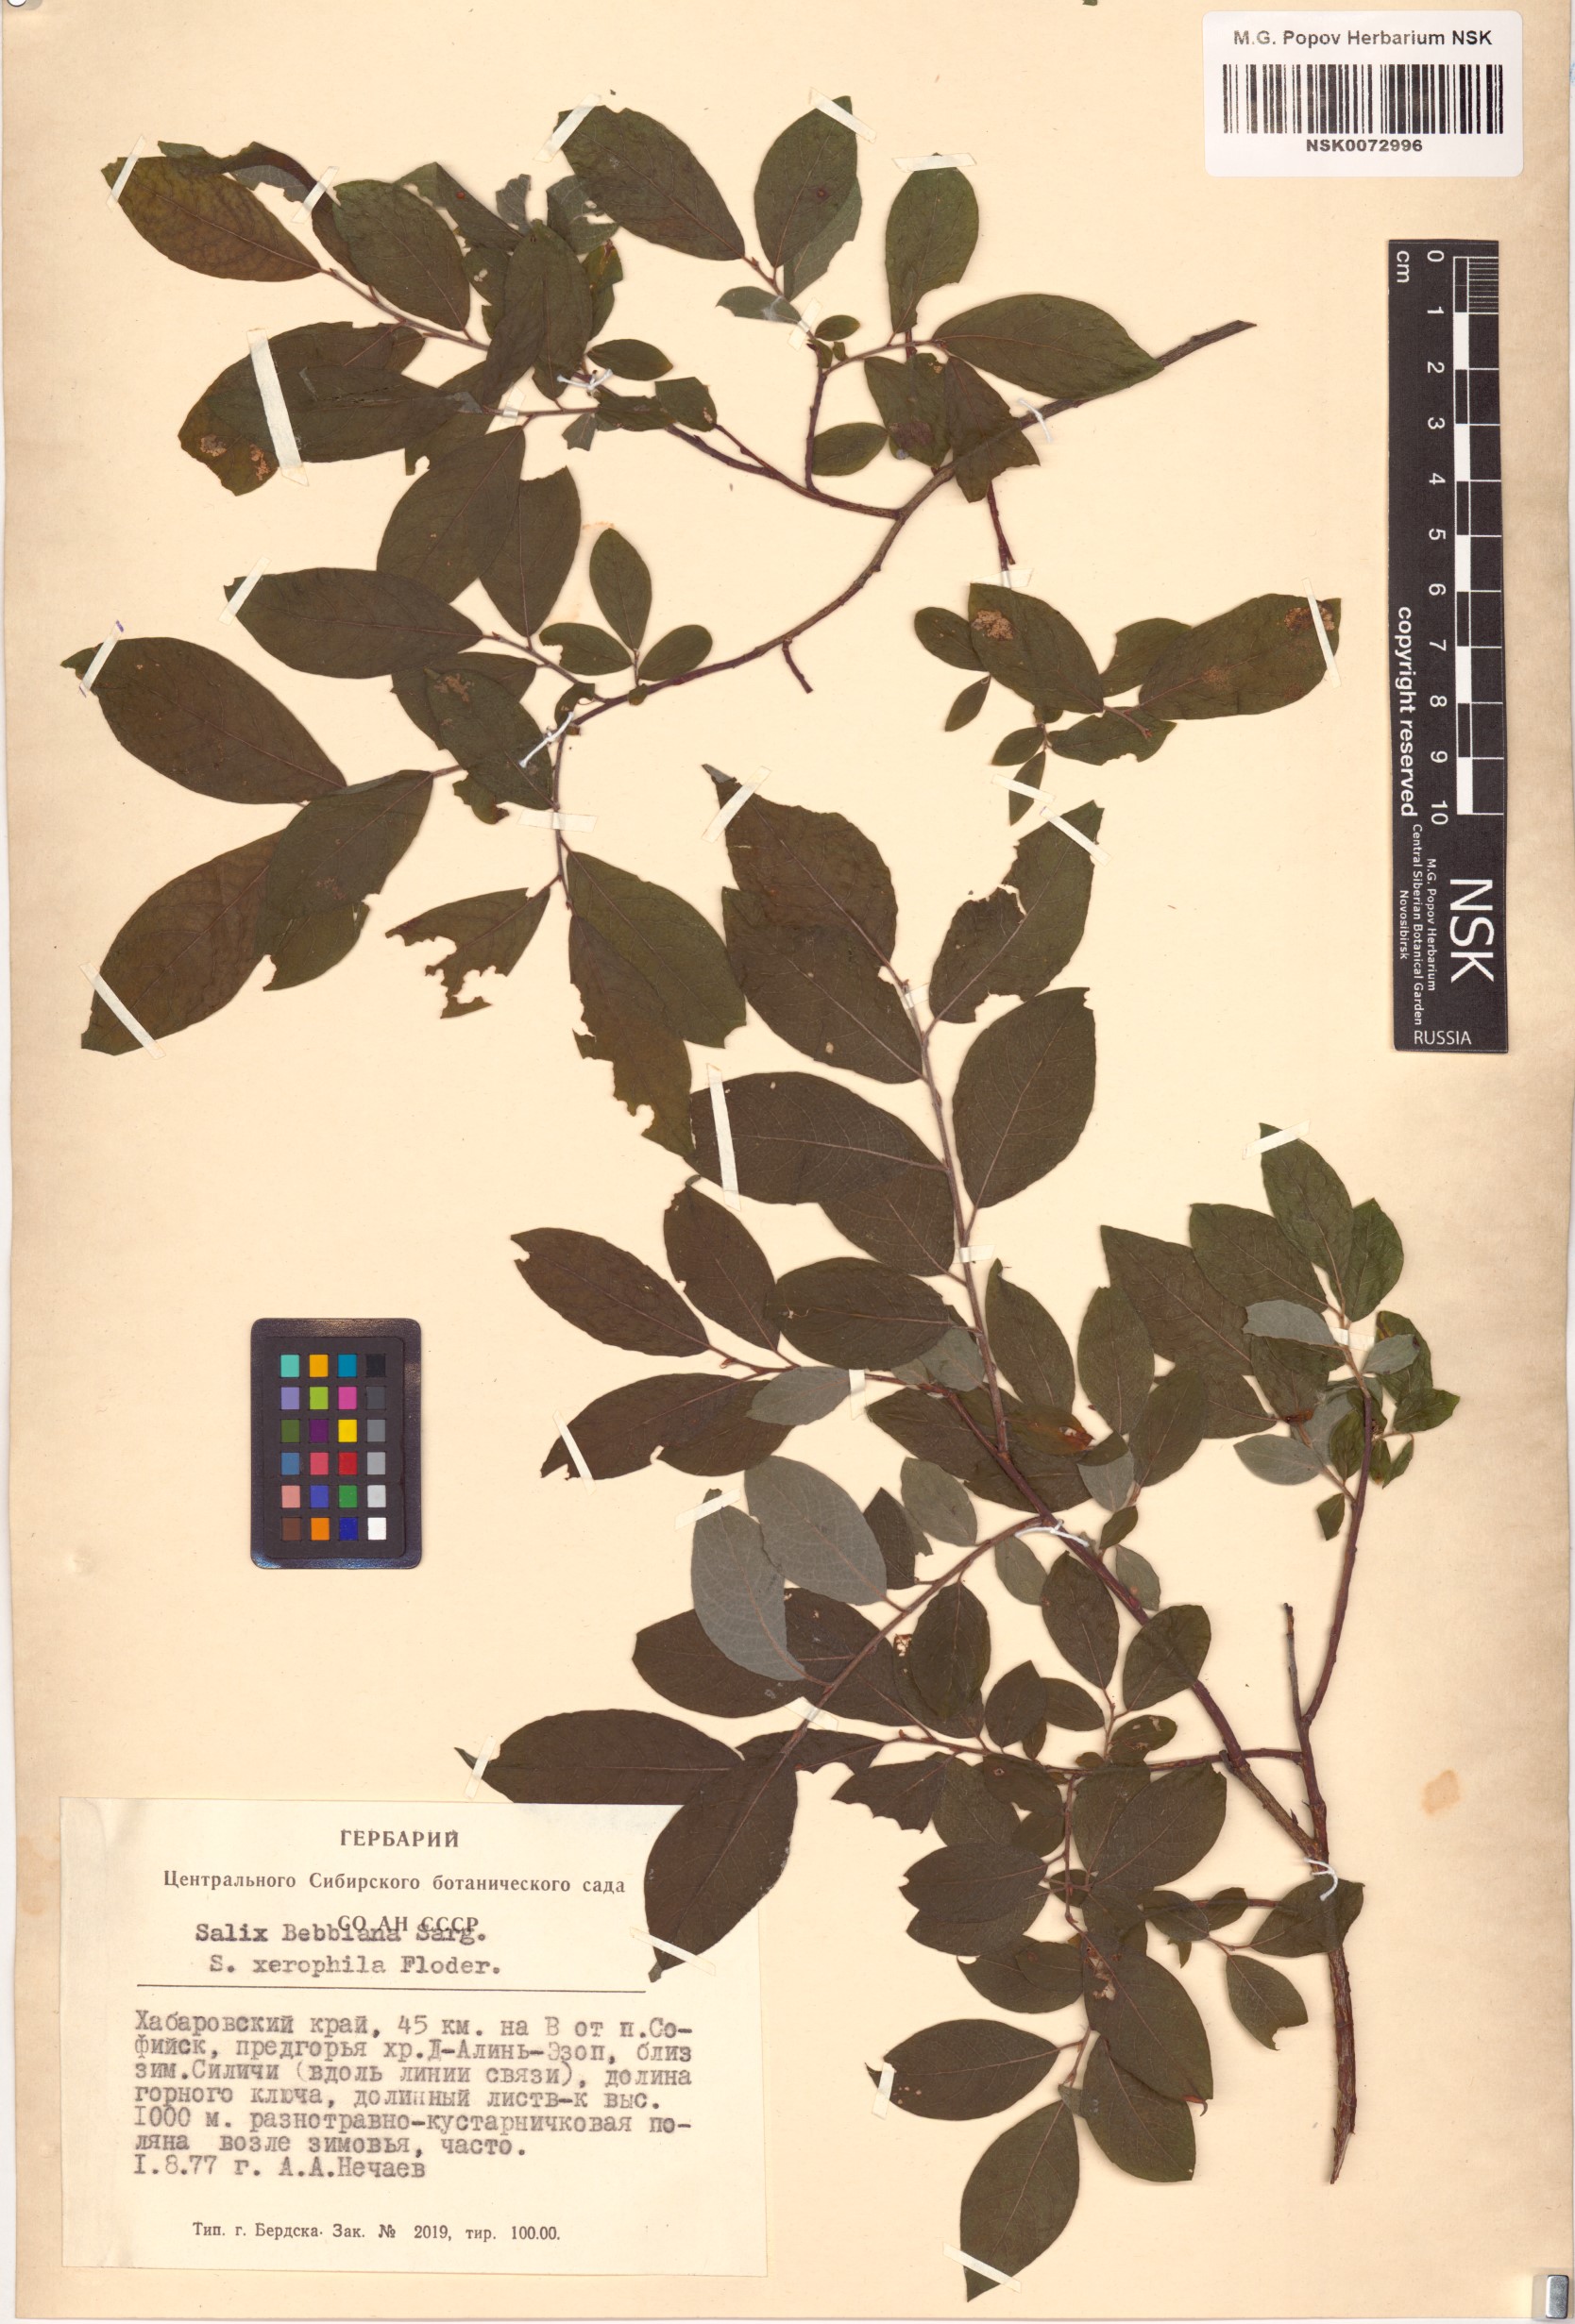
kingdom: Plantae
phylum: Tracheophyta
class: Magnoliopsida
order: Malpighiales
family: Salicaceae
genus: Salix
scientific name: Salix bebbiana
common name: Bebb's willow
